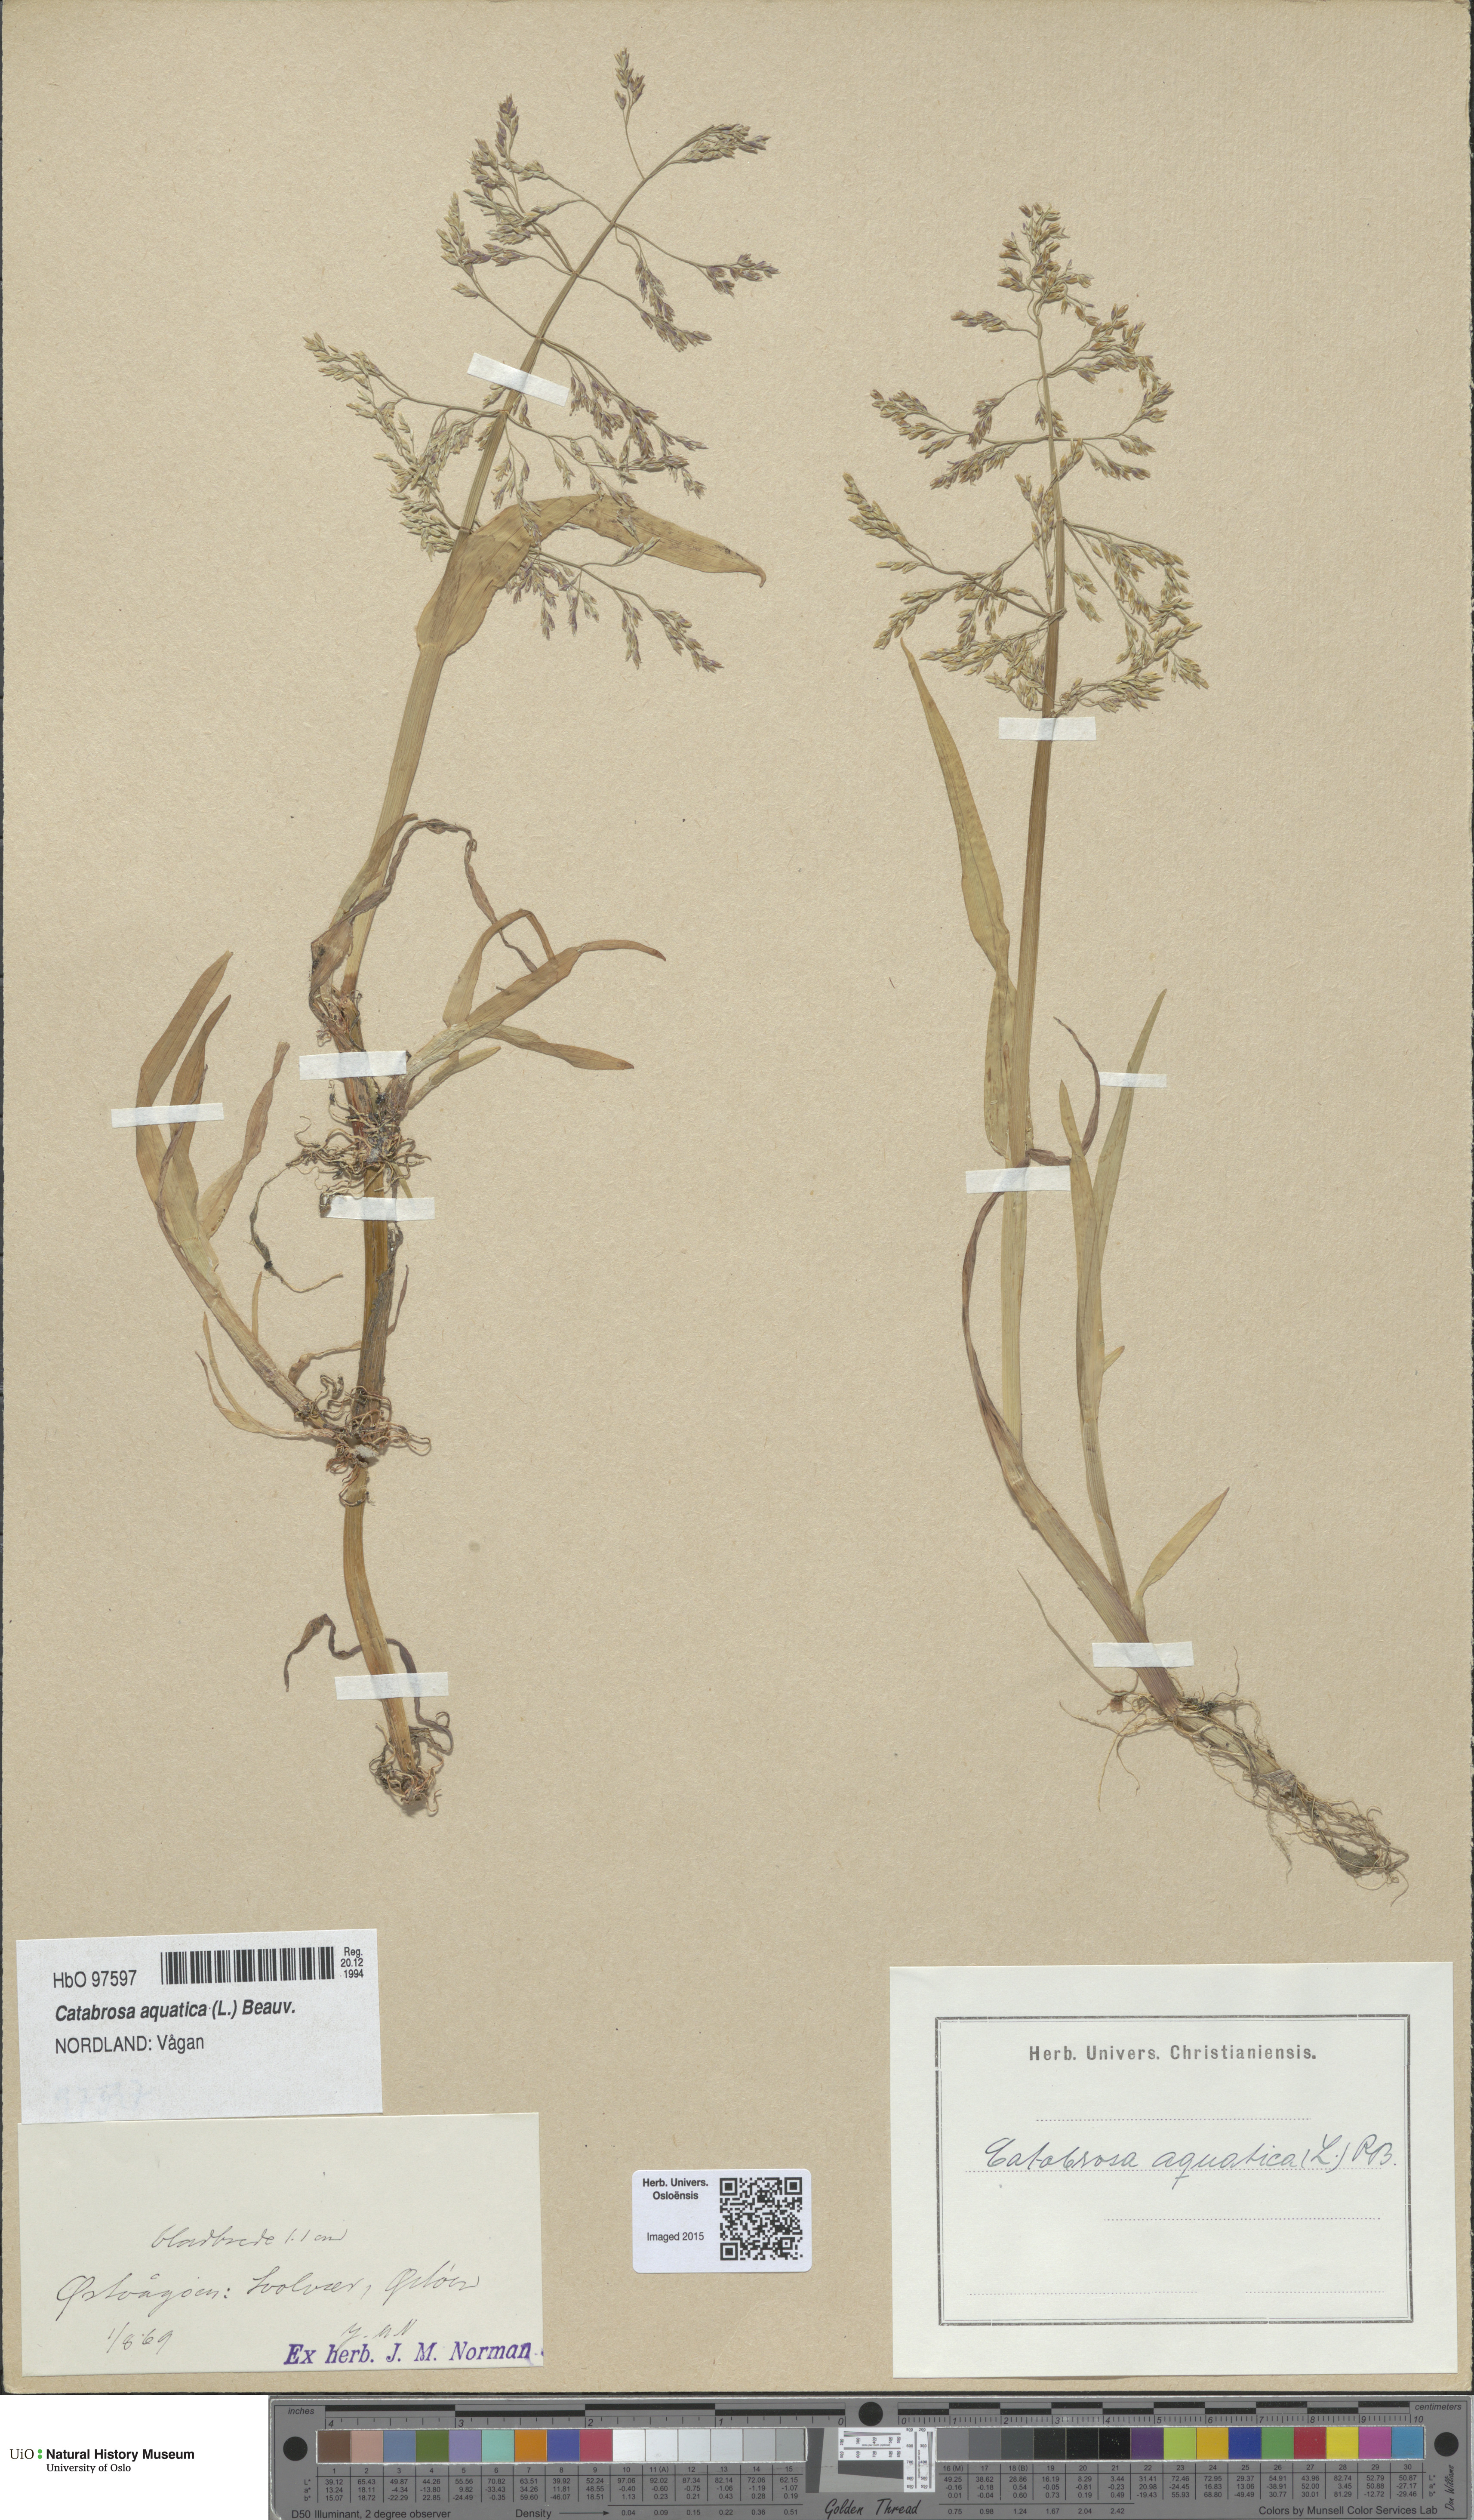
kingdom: Plantae
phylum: Tracheophyta
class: Liliopsida
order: Poales
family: Poaceae
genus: Catabrosa
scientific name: Catabrosa aquatica
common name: Whorl-grass
